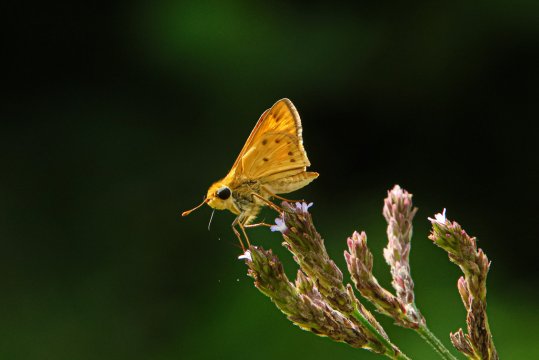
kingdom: Animalia
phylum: Arthropoda
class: Insecta
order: Lepidoptera
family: Hesperiidae
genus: Hylephila
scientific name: Hylephila phyleus
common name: Fiery Skipper
